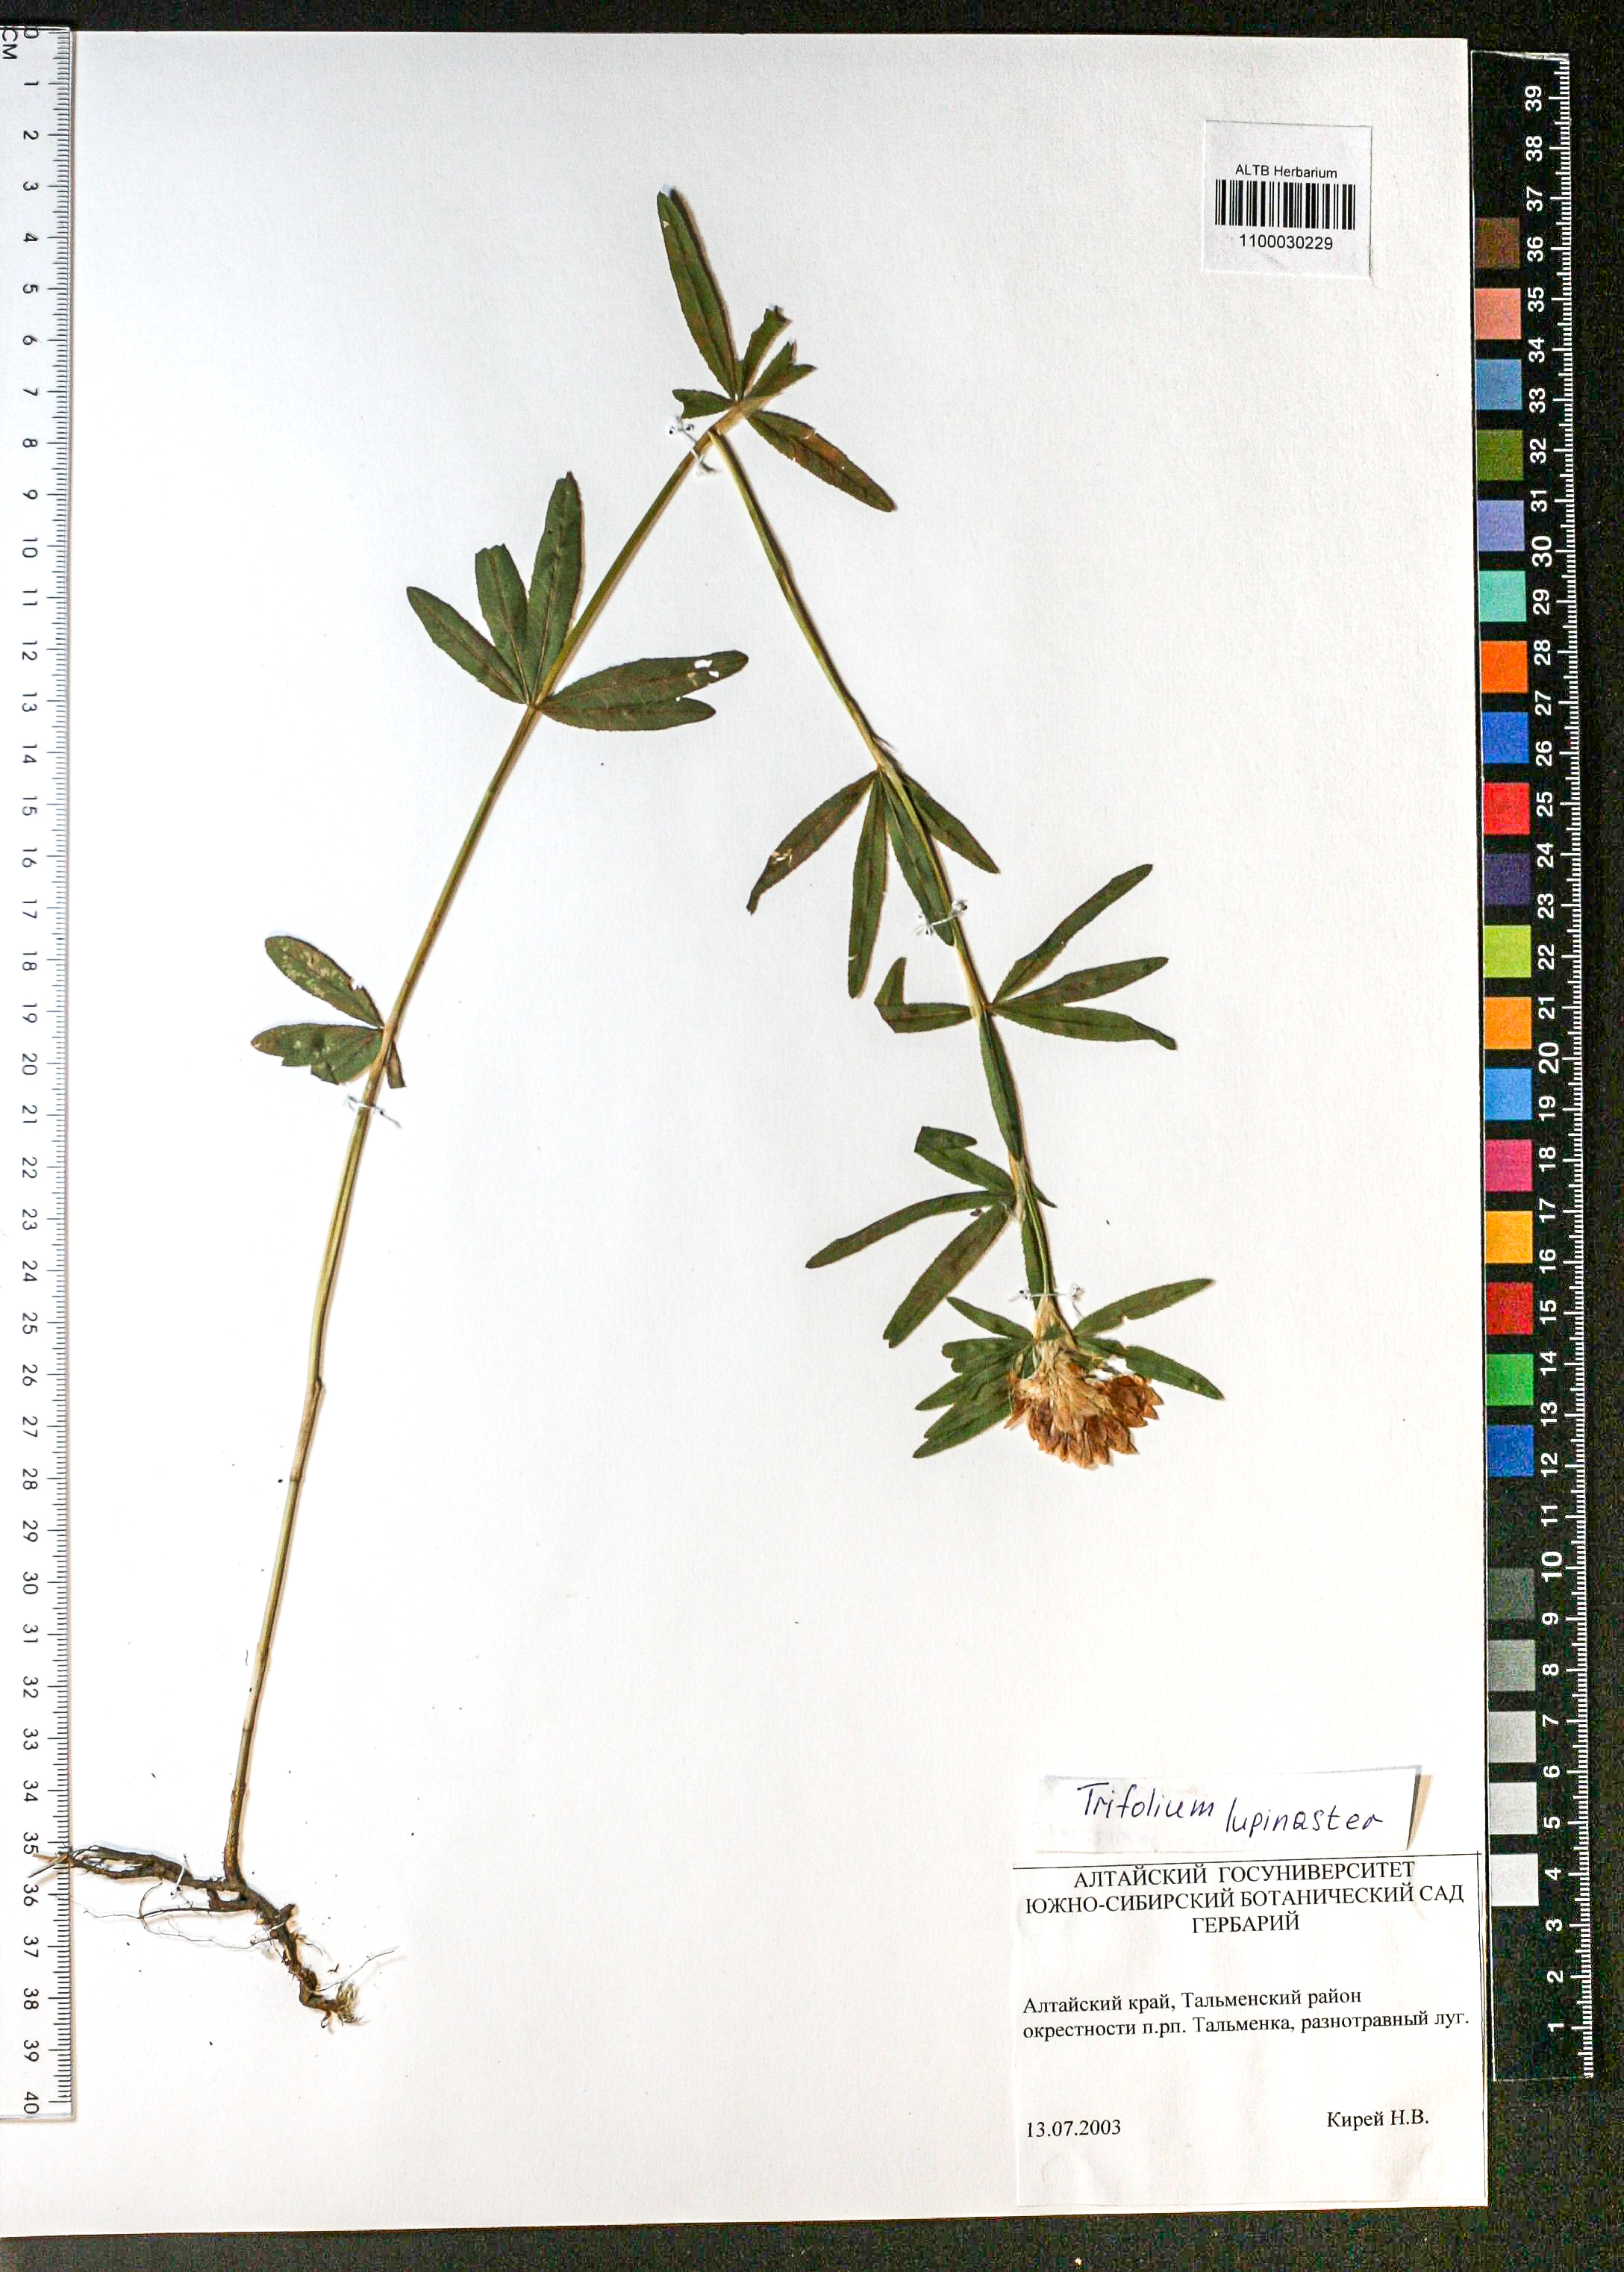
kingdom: Plantae
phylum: Tracheophyta
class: Magnoliopsida
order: Fabales
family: Fabaceae
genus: Trifolium
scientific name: Trifolium lupinaster
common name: Lupine clover
